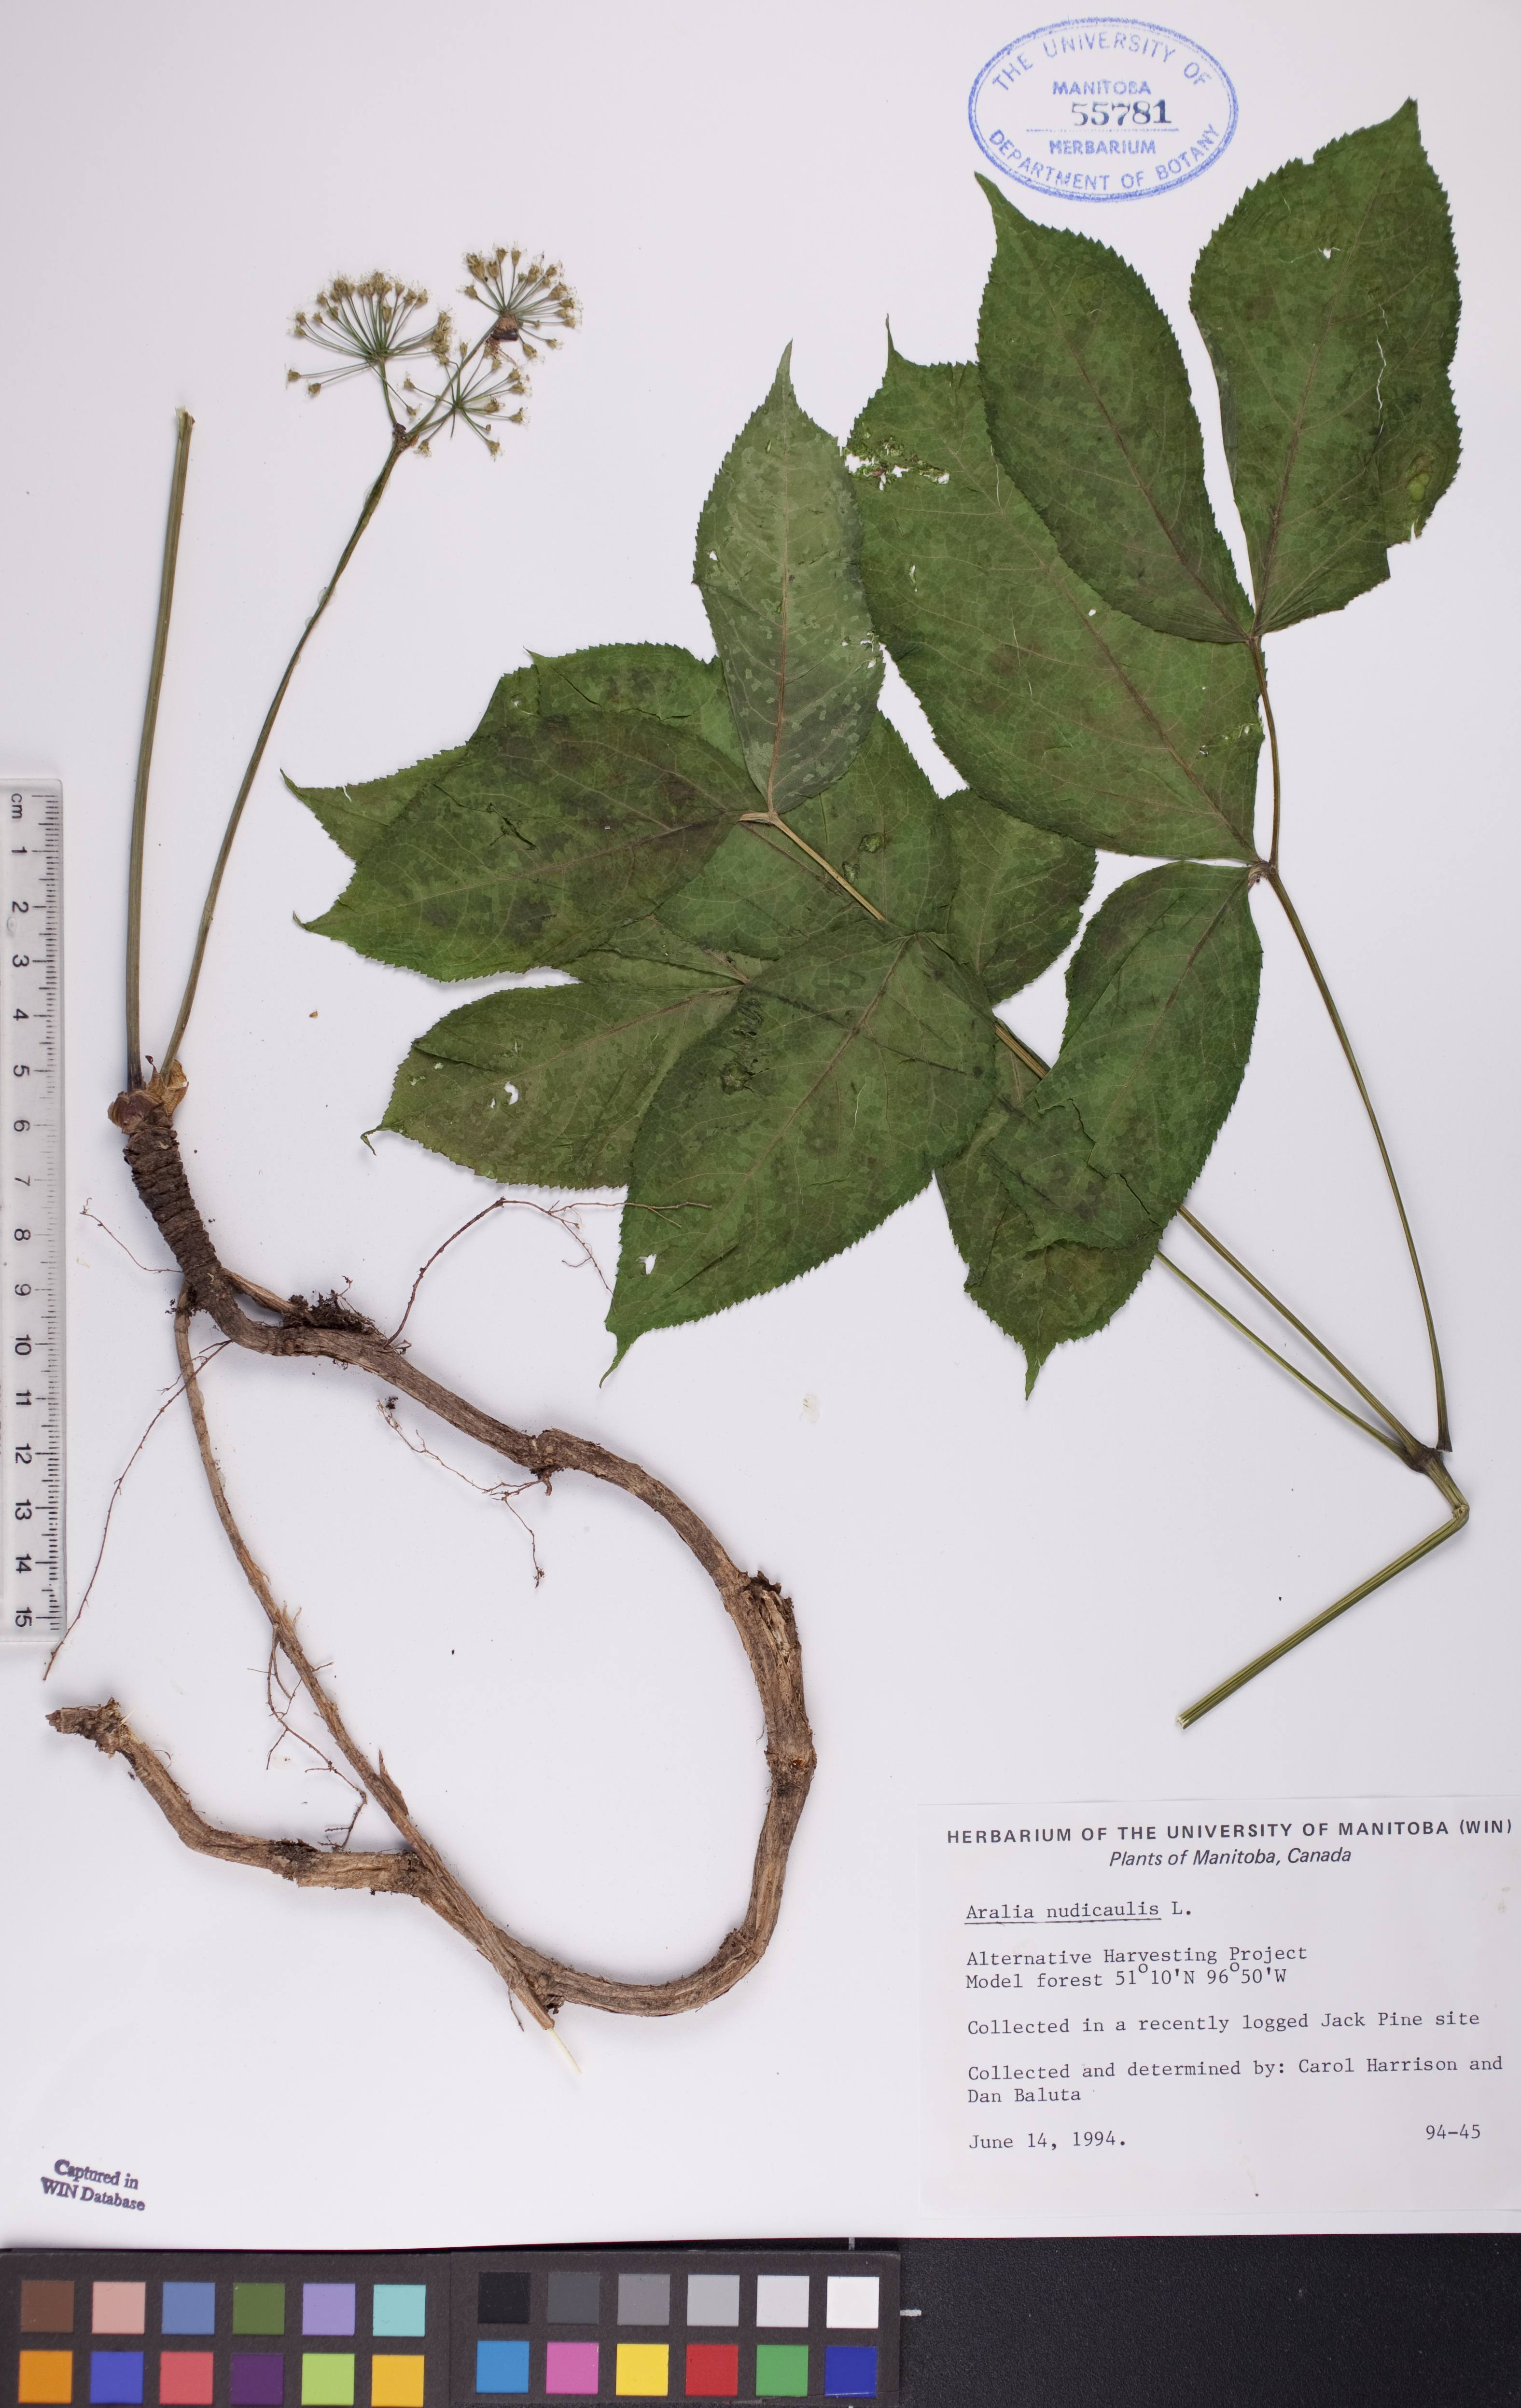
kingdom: Plantae
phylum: Tracheophyta
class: Magnoliopsida
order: Apiales
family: Araliaceae
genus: Aralia
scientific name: Aralia nudicaulis
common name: Wild sarsaparilla
